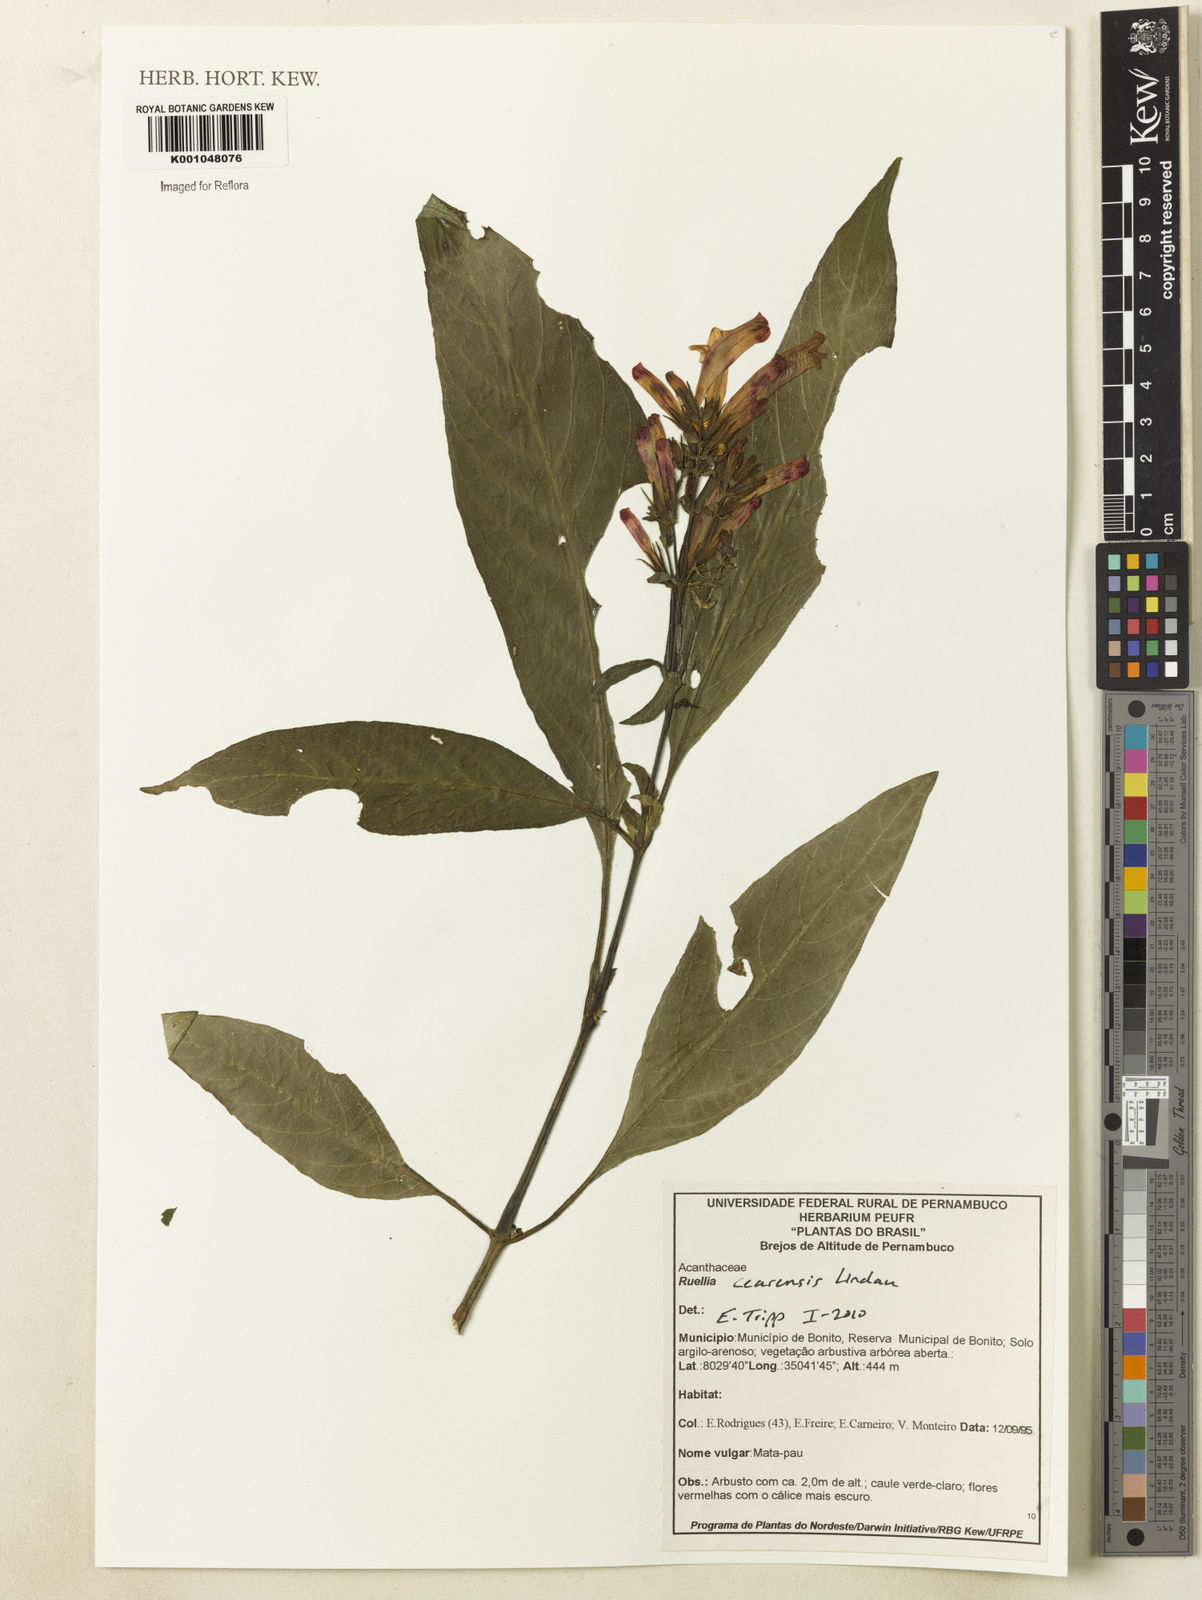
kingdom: Plantae
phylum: Tracheophyta
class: Magnoliopsida
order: Lamiales
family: Acanthaceae
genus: Ruellia
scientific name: Ruellia cearensis
